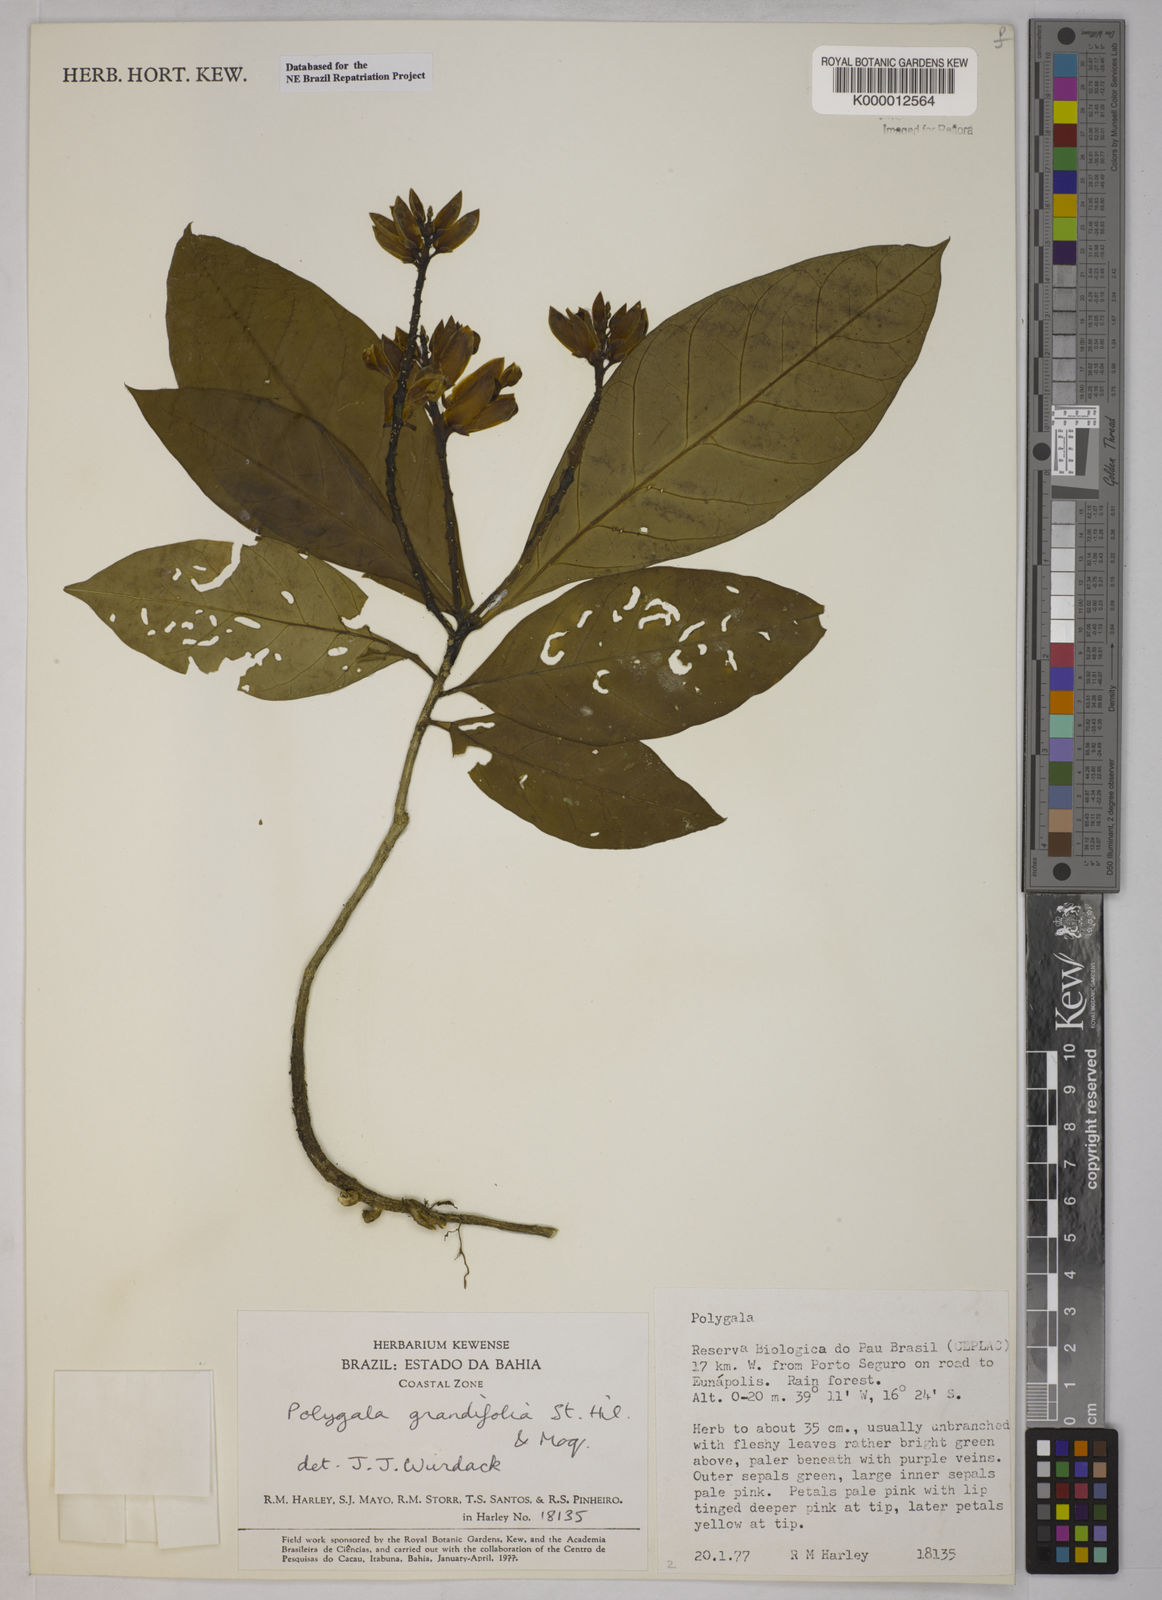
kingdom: Plantae
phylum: Tracheophyta
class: Magnoliopsida
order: Fabales
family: Polygalaceae
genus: Caamembeca
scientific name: Caamembeca grandifolia
